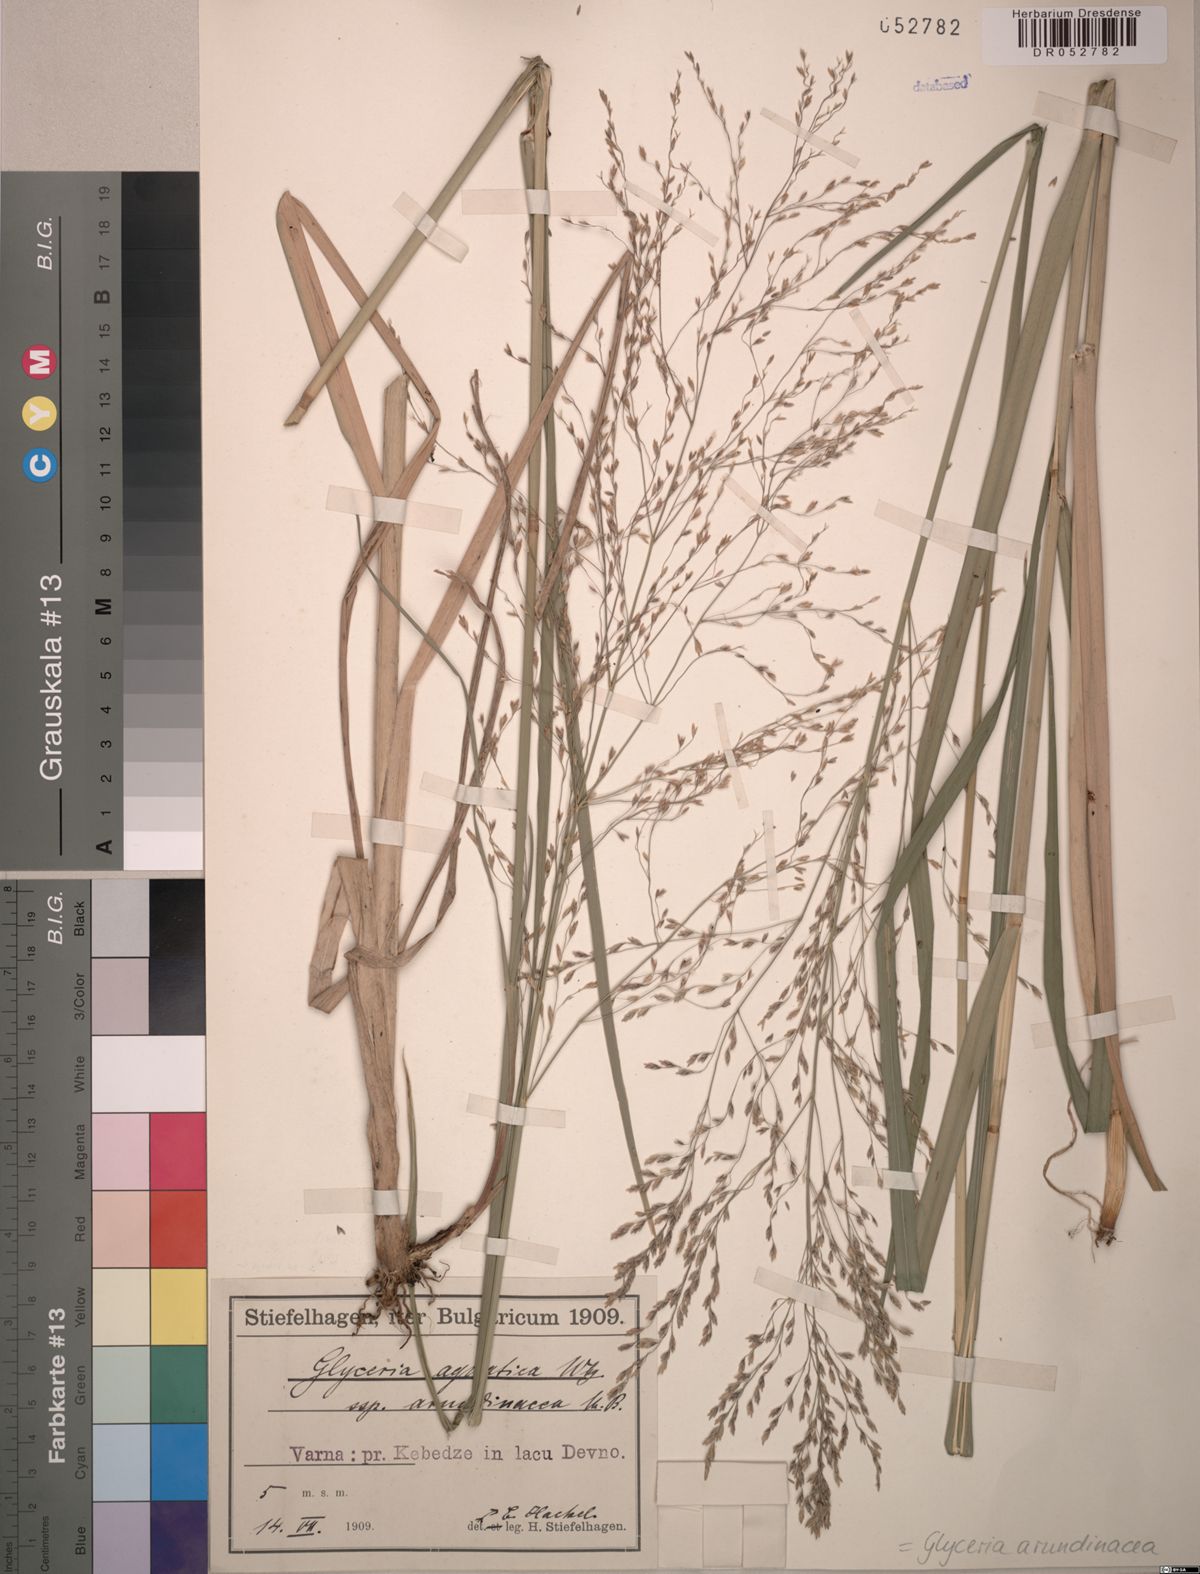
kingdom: Plantae
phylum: Tracheophyta
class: Liliopsida
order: Poales
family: Poaceae
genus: Glyceria
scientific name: Glyceria arundinacea
